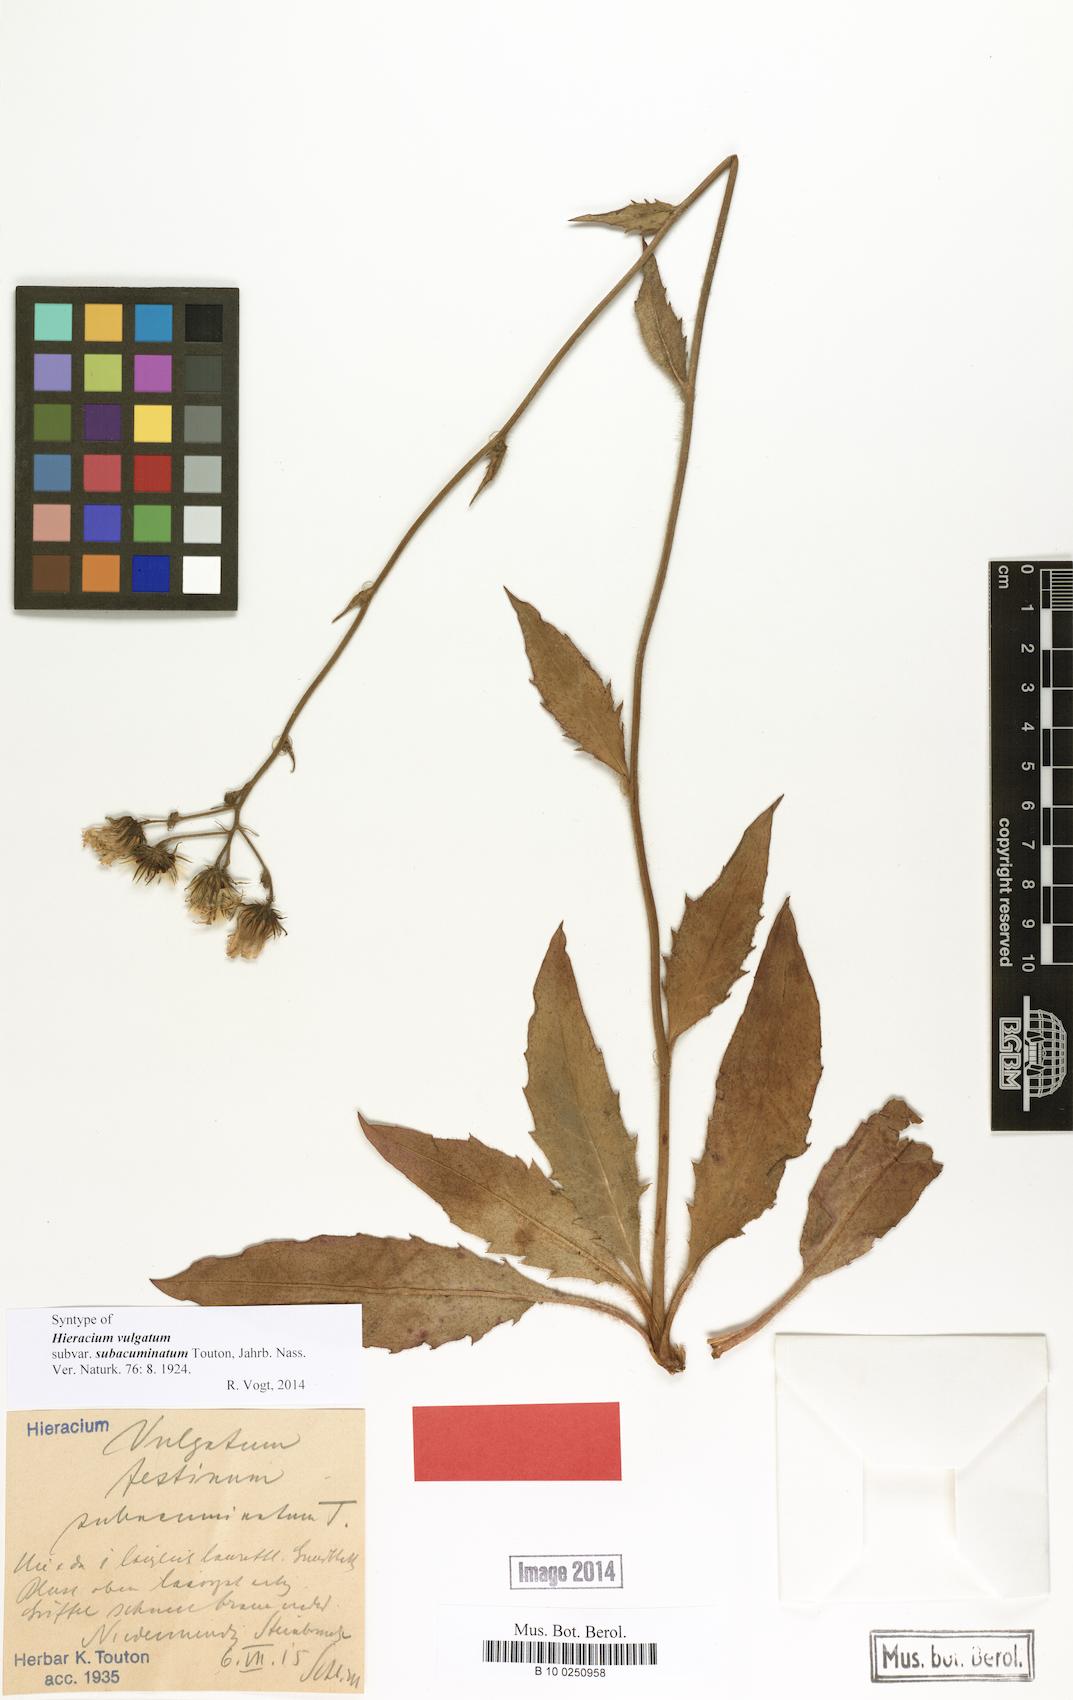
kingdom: Plantae
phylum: Tracheophyta
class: Magnoliopsida
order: Asterales
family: Asteraceae
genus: Hieracium
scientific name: Hieracium lachenalii
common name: Common hawkweed
